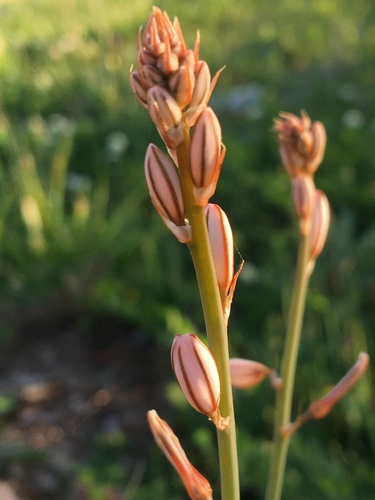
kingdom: Plantae
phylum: Tracheophyta
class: Liliopsida
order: Asparagales
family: Asphodelaceae
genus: Asphodelus
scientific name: Asphodelus fistulosus
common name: Onionweed
